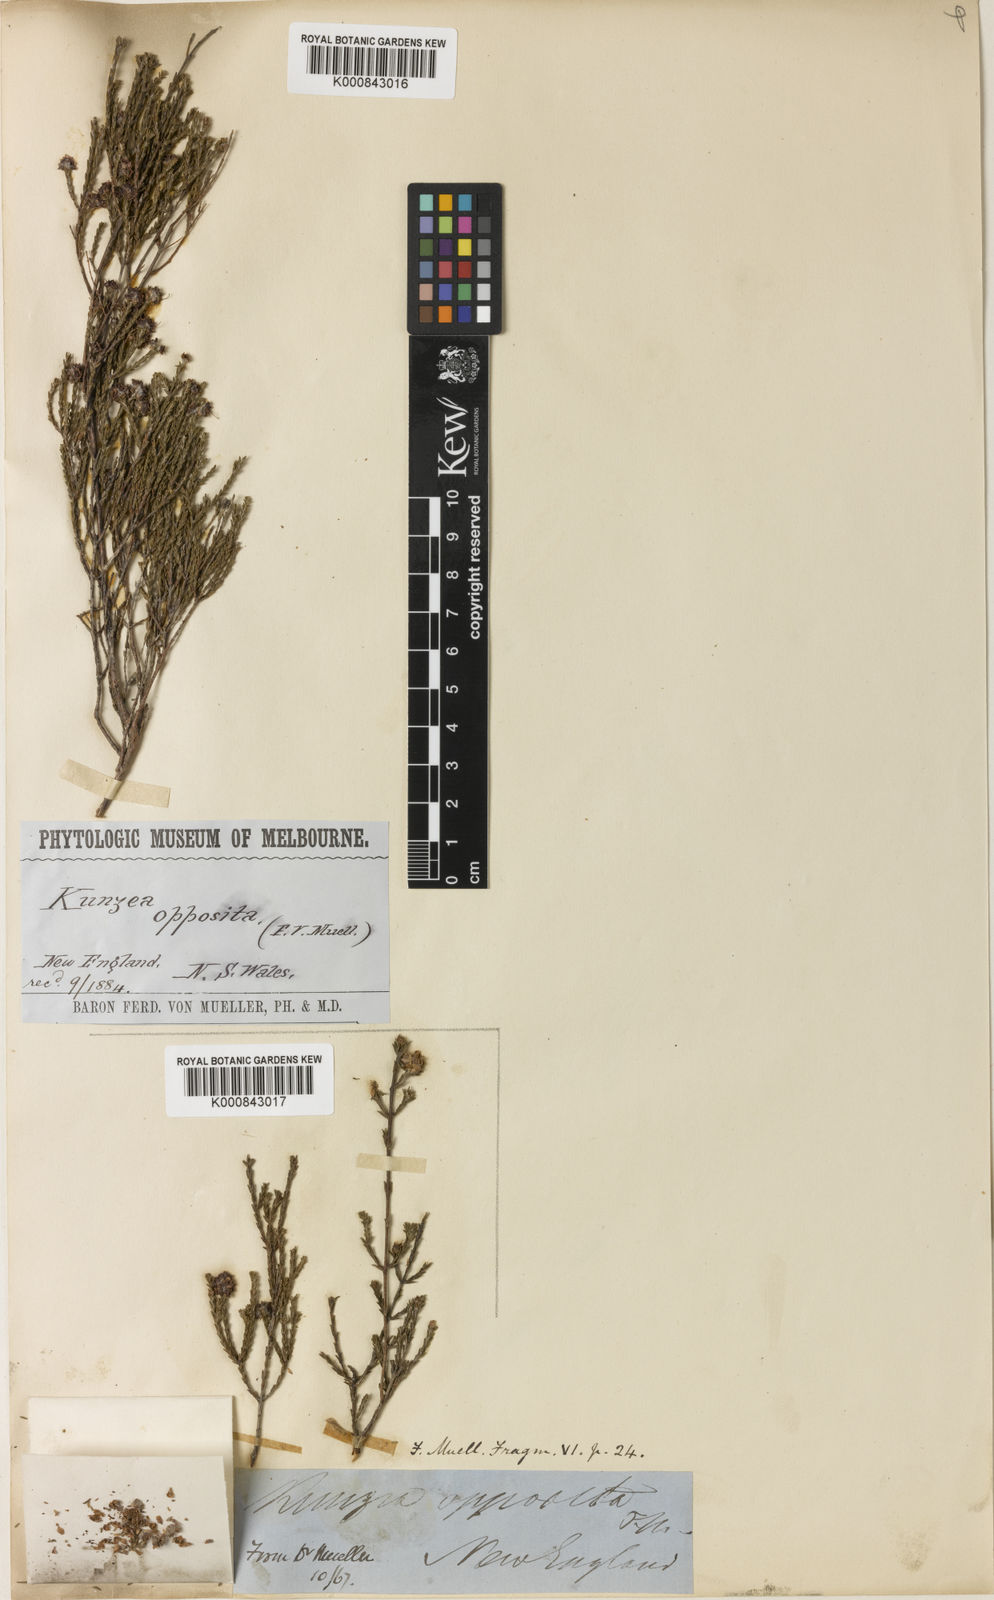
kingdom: Plantae
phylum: Tracheophyta
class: Magnoliopsida
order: Myrtales
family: Myrtaceae
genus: Kunzea
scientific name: Kunzea opposita
